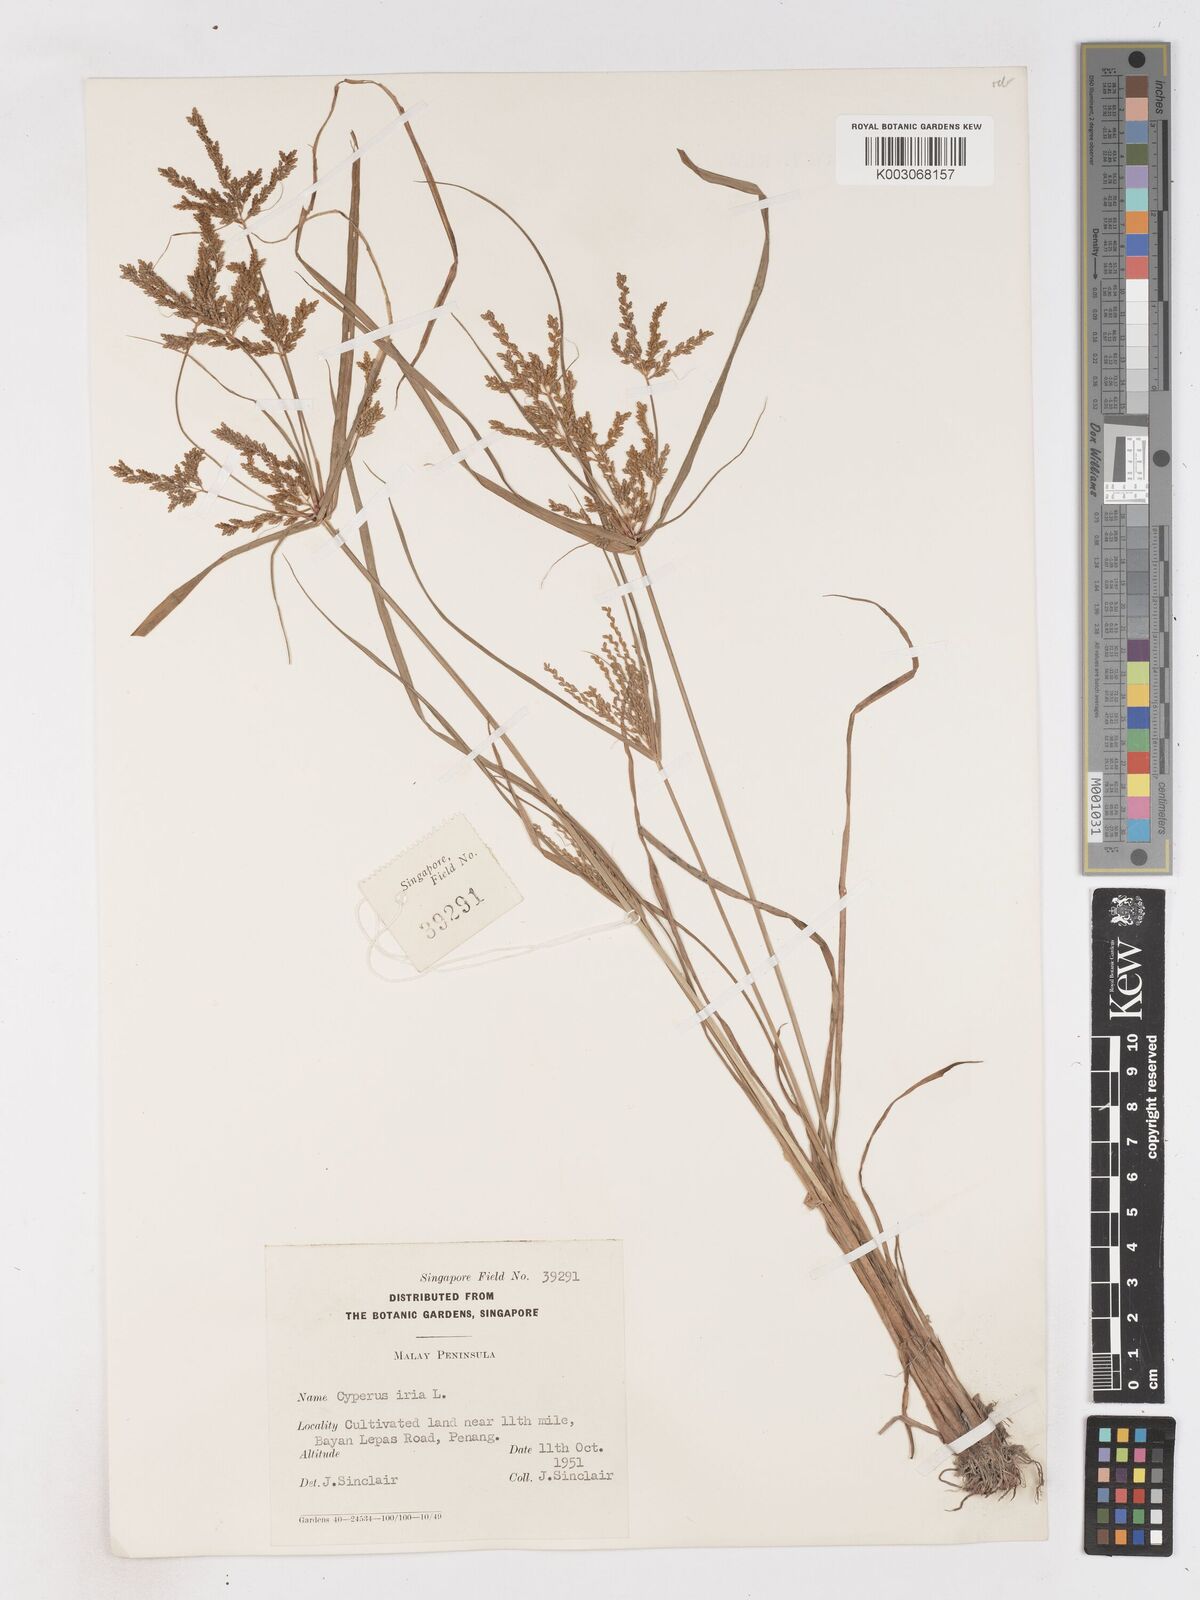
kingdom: Plantae
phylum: Tracheophyta
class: Liliopsida
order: Poales
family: Cyperaceae
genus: Cyperus
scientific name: Cyperus iria
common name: Ricefield flatsedge
